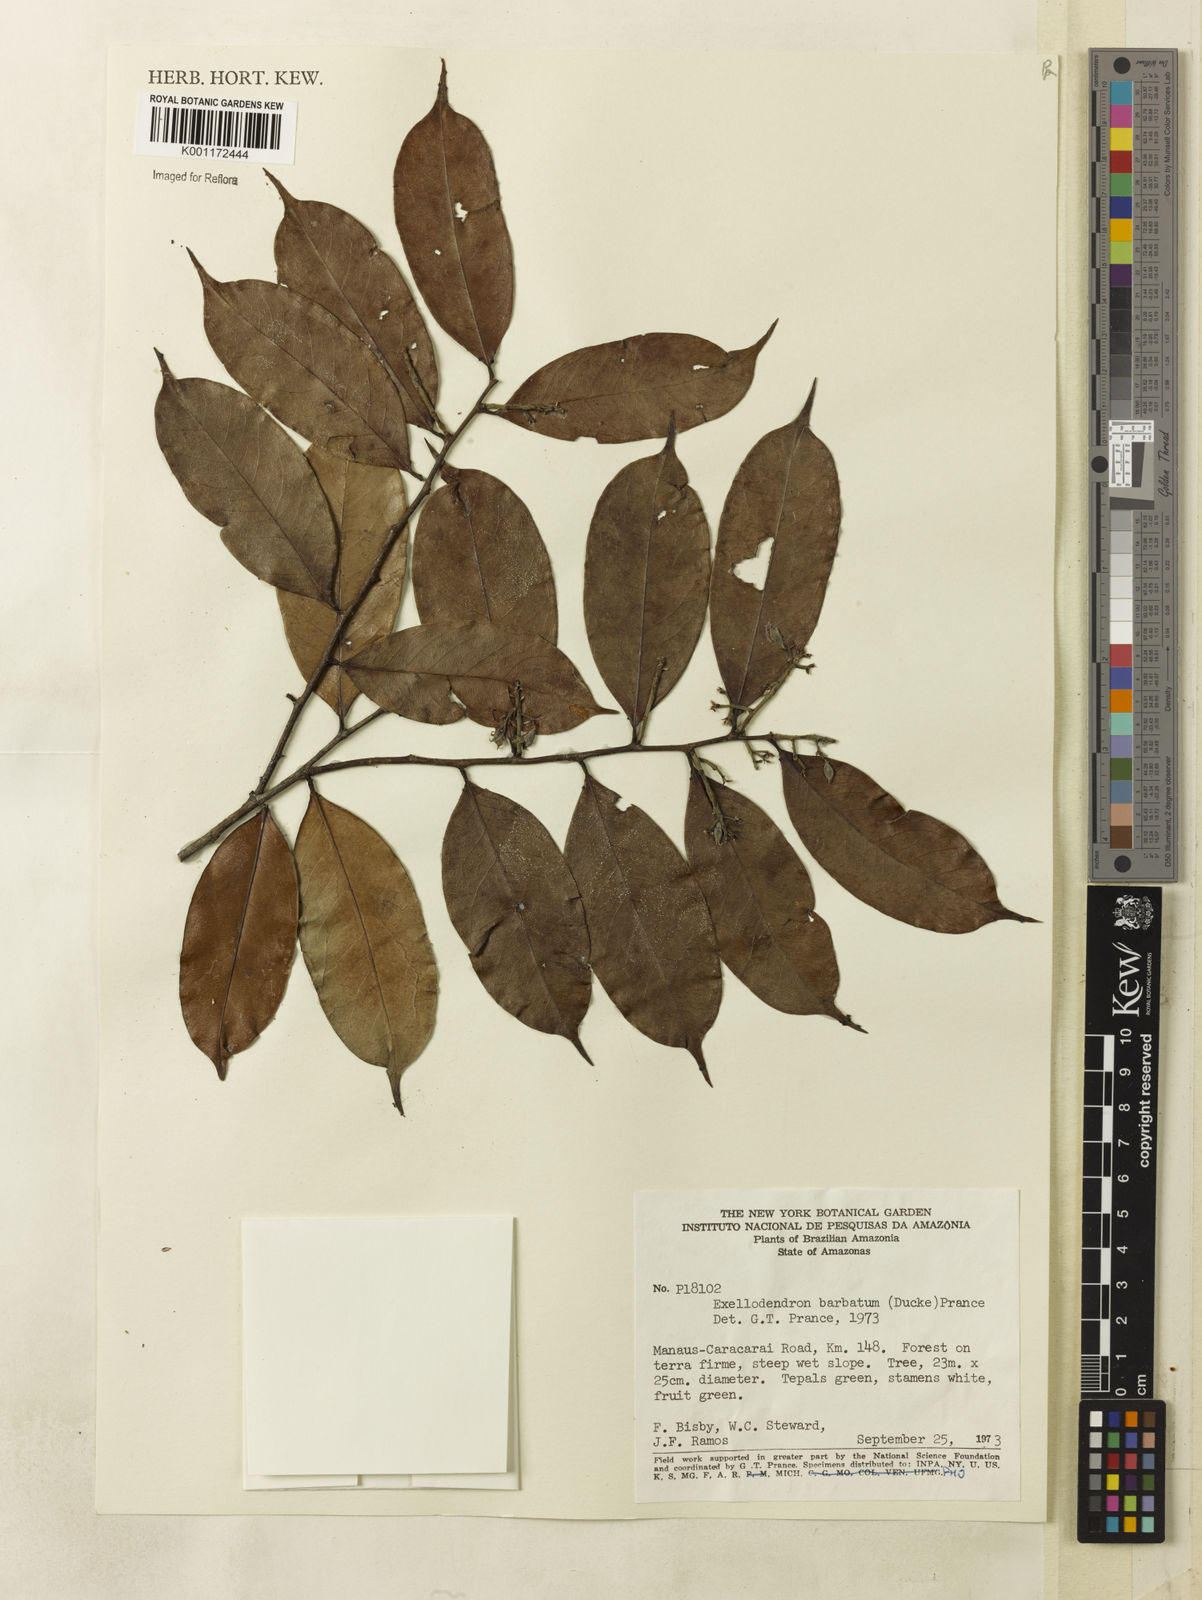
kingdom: Plantae
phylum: Tracheophyta
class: Magnoliopsida
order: Malpighiales
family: Chrysobalanaceae
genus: Atuna
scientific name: Atuna
